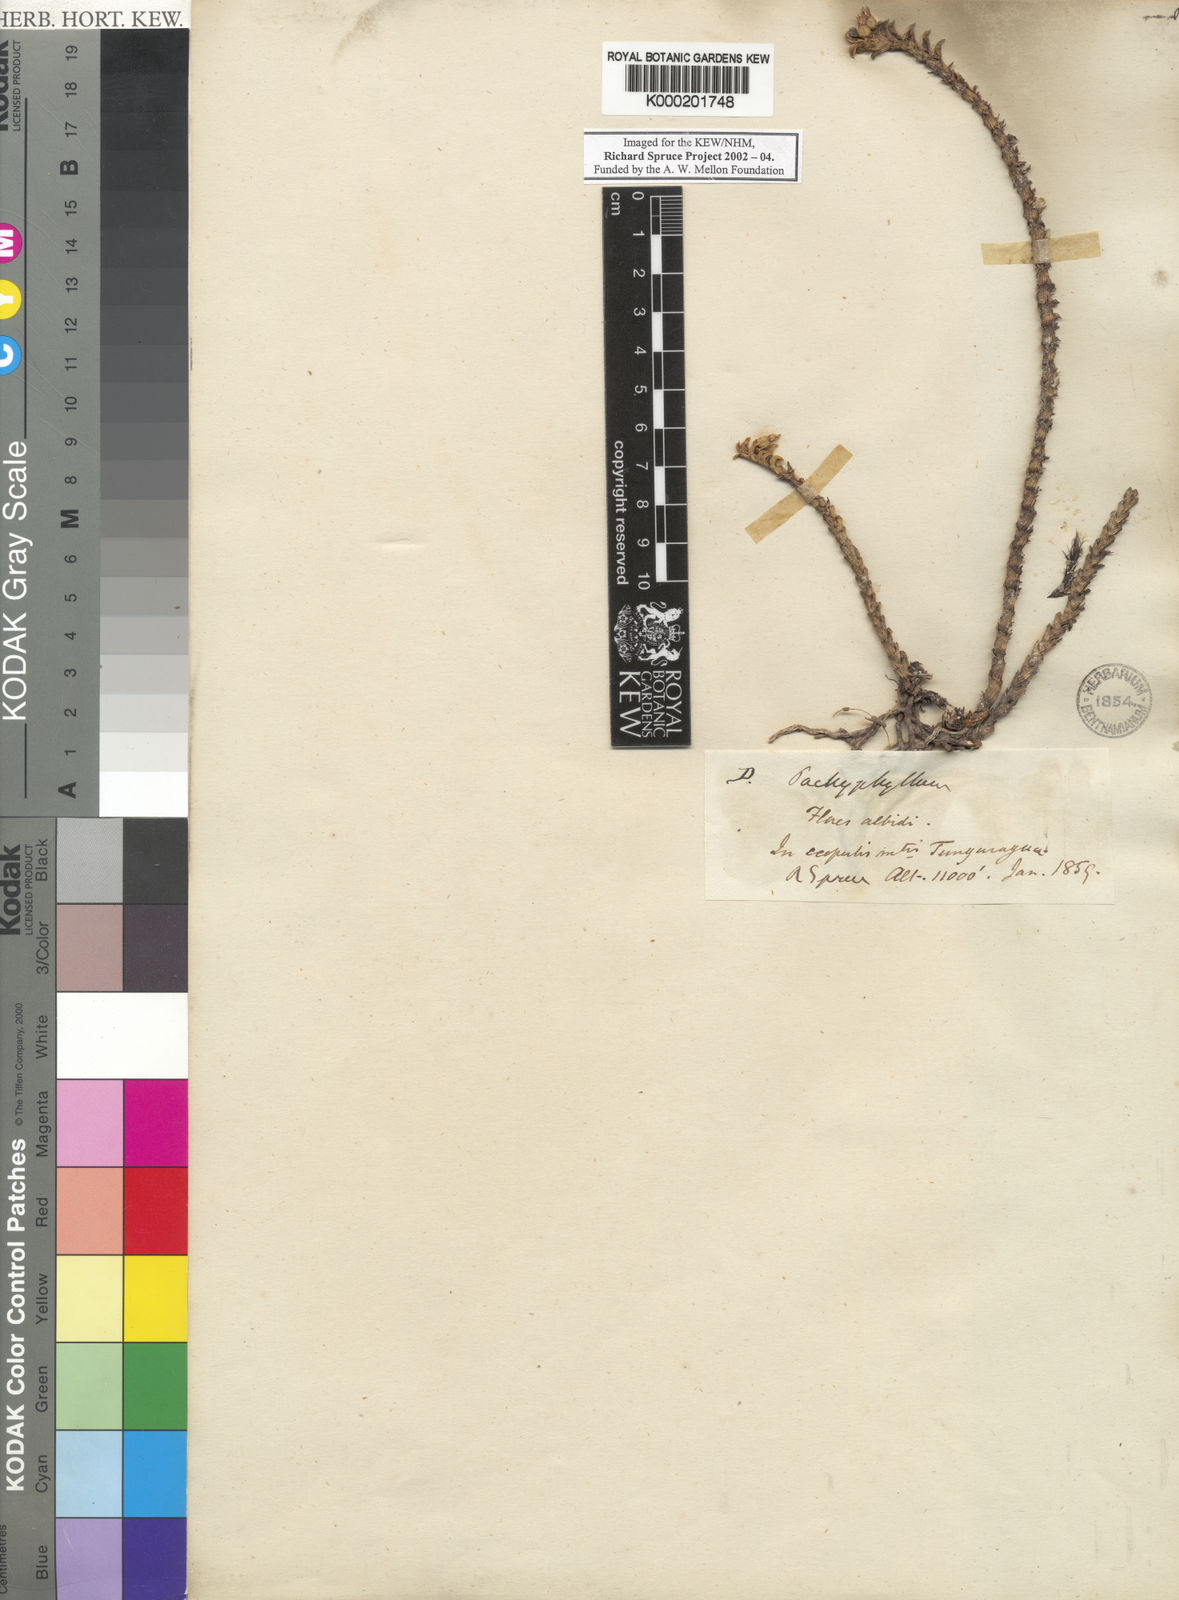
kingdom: Plantae
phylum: Tracheophyta
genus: Pachyphyllum
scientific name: Pachyphyllum
